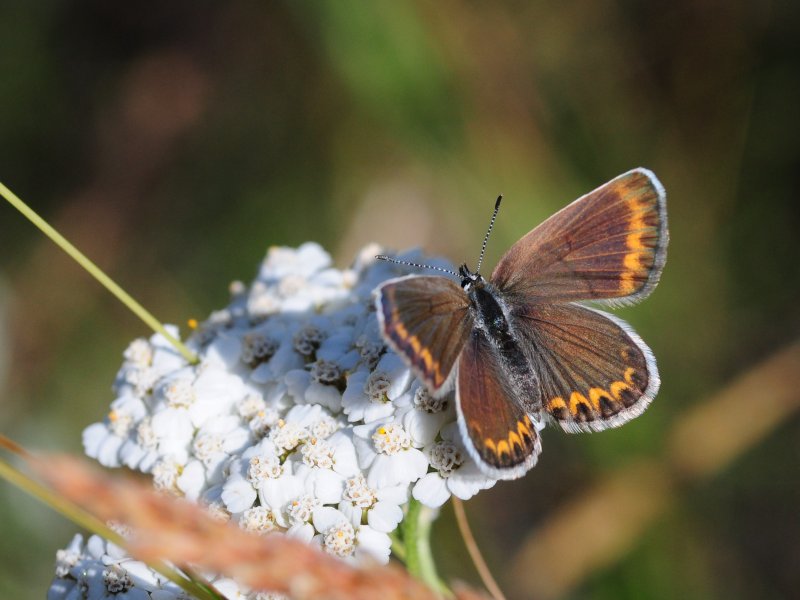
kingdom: Animalia
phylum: Arthropoda
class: Insecta
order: Lepidoptera
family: Lycaenidae
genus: Lycaeides
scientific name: Lycaeides melissa
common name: Melissa Blue
